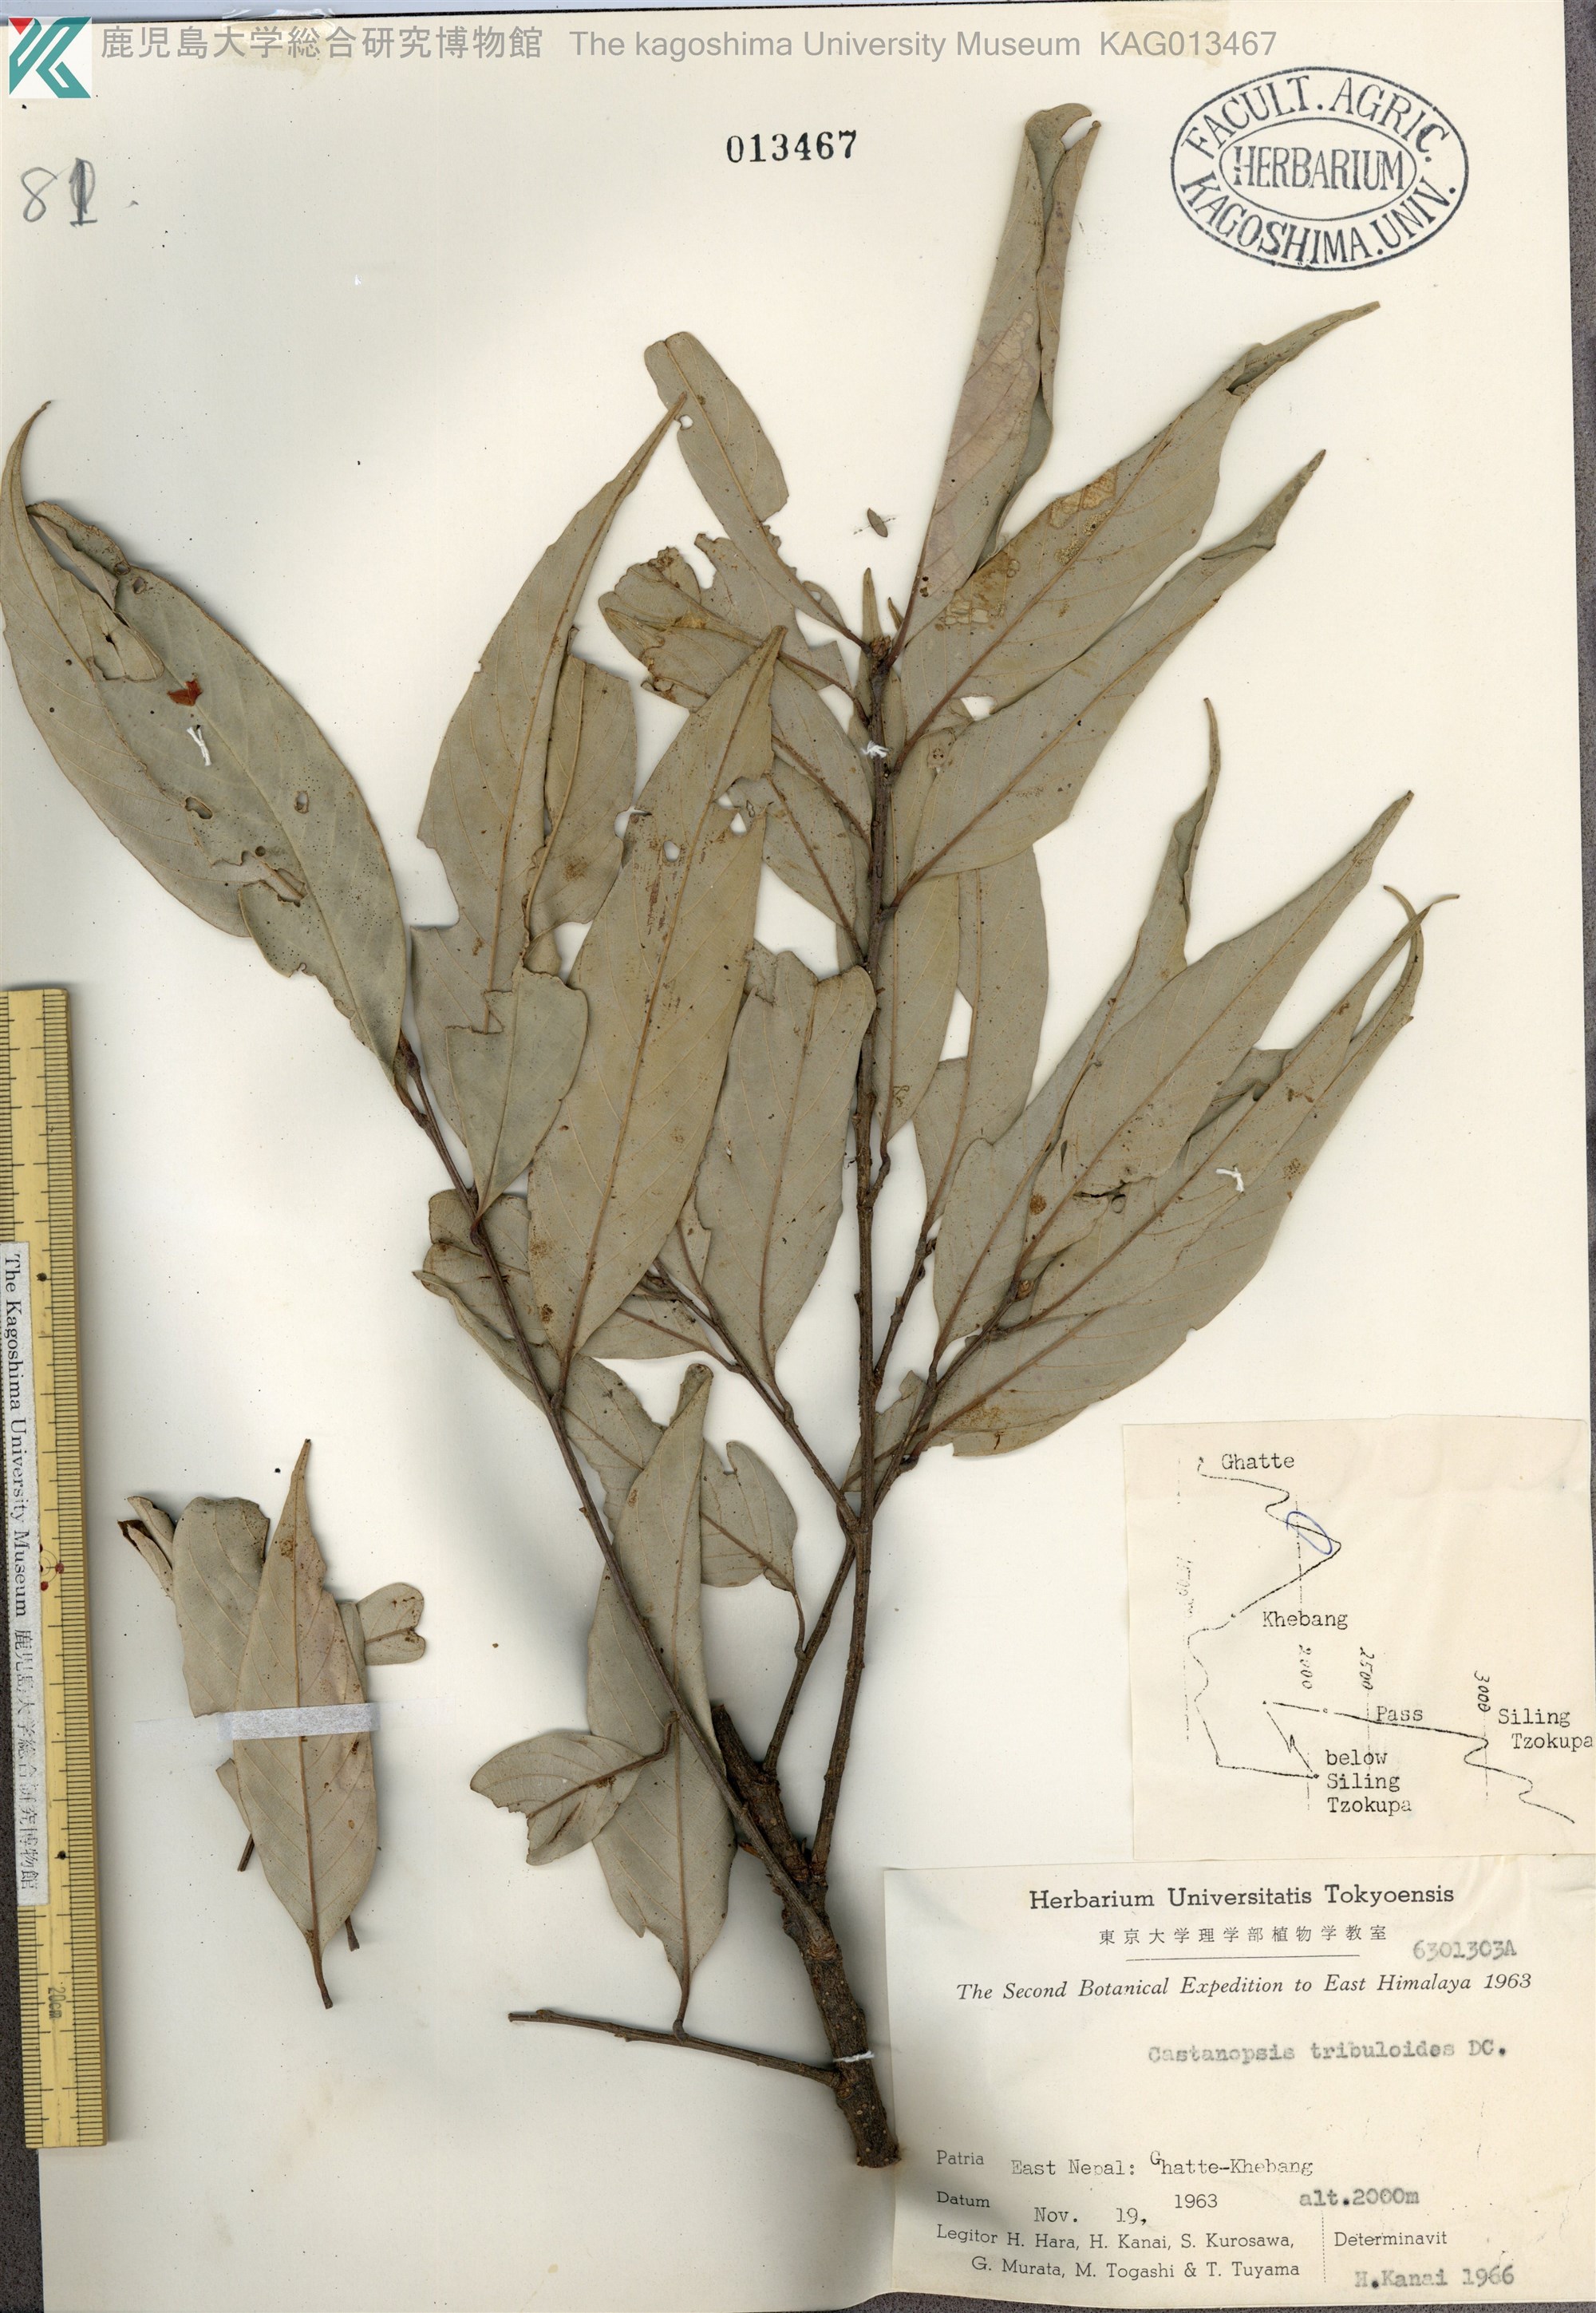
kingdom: Plantae
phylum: Tracheophyta
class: Magnoliopsida
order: Fagales
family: Fagaceae
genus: Castanopsis
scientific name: Castanopsis tribuloides
